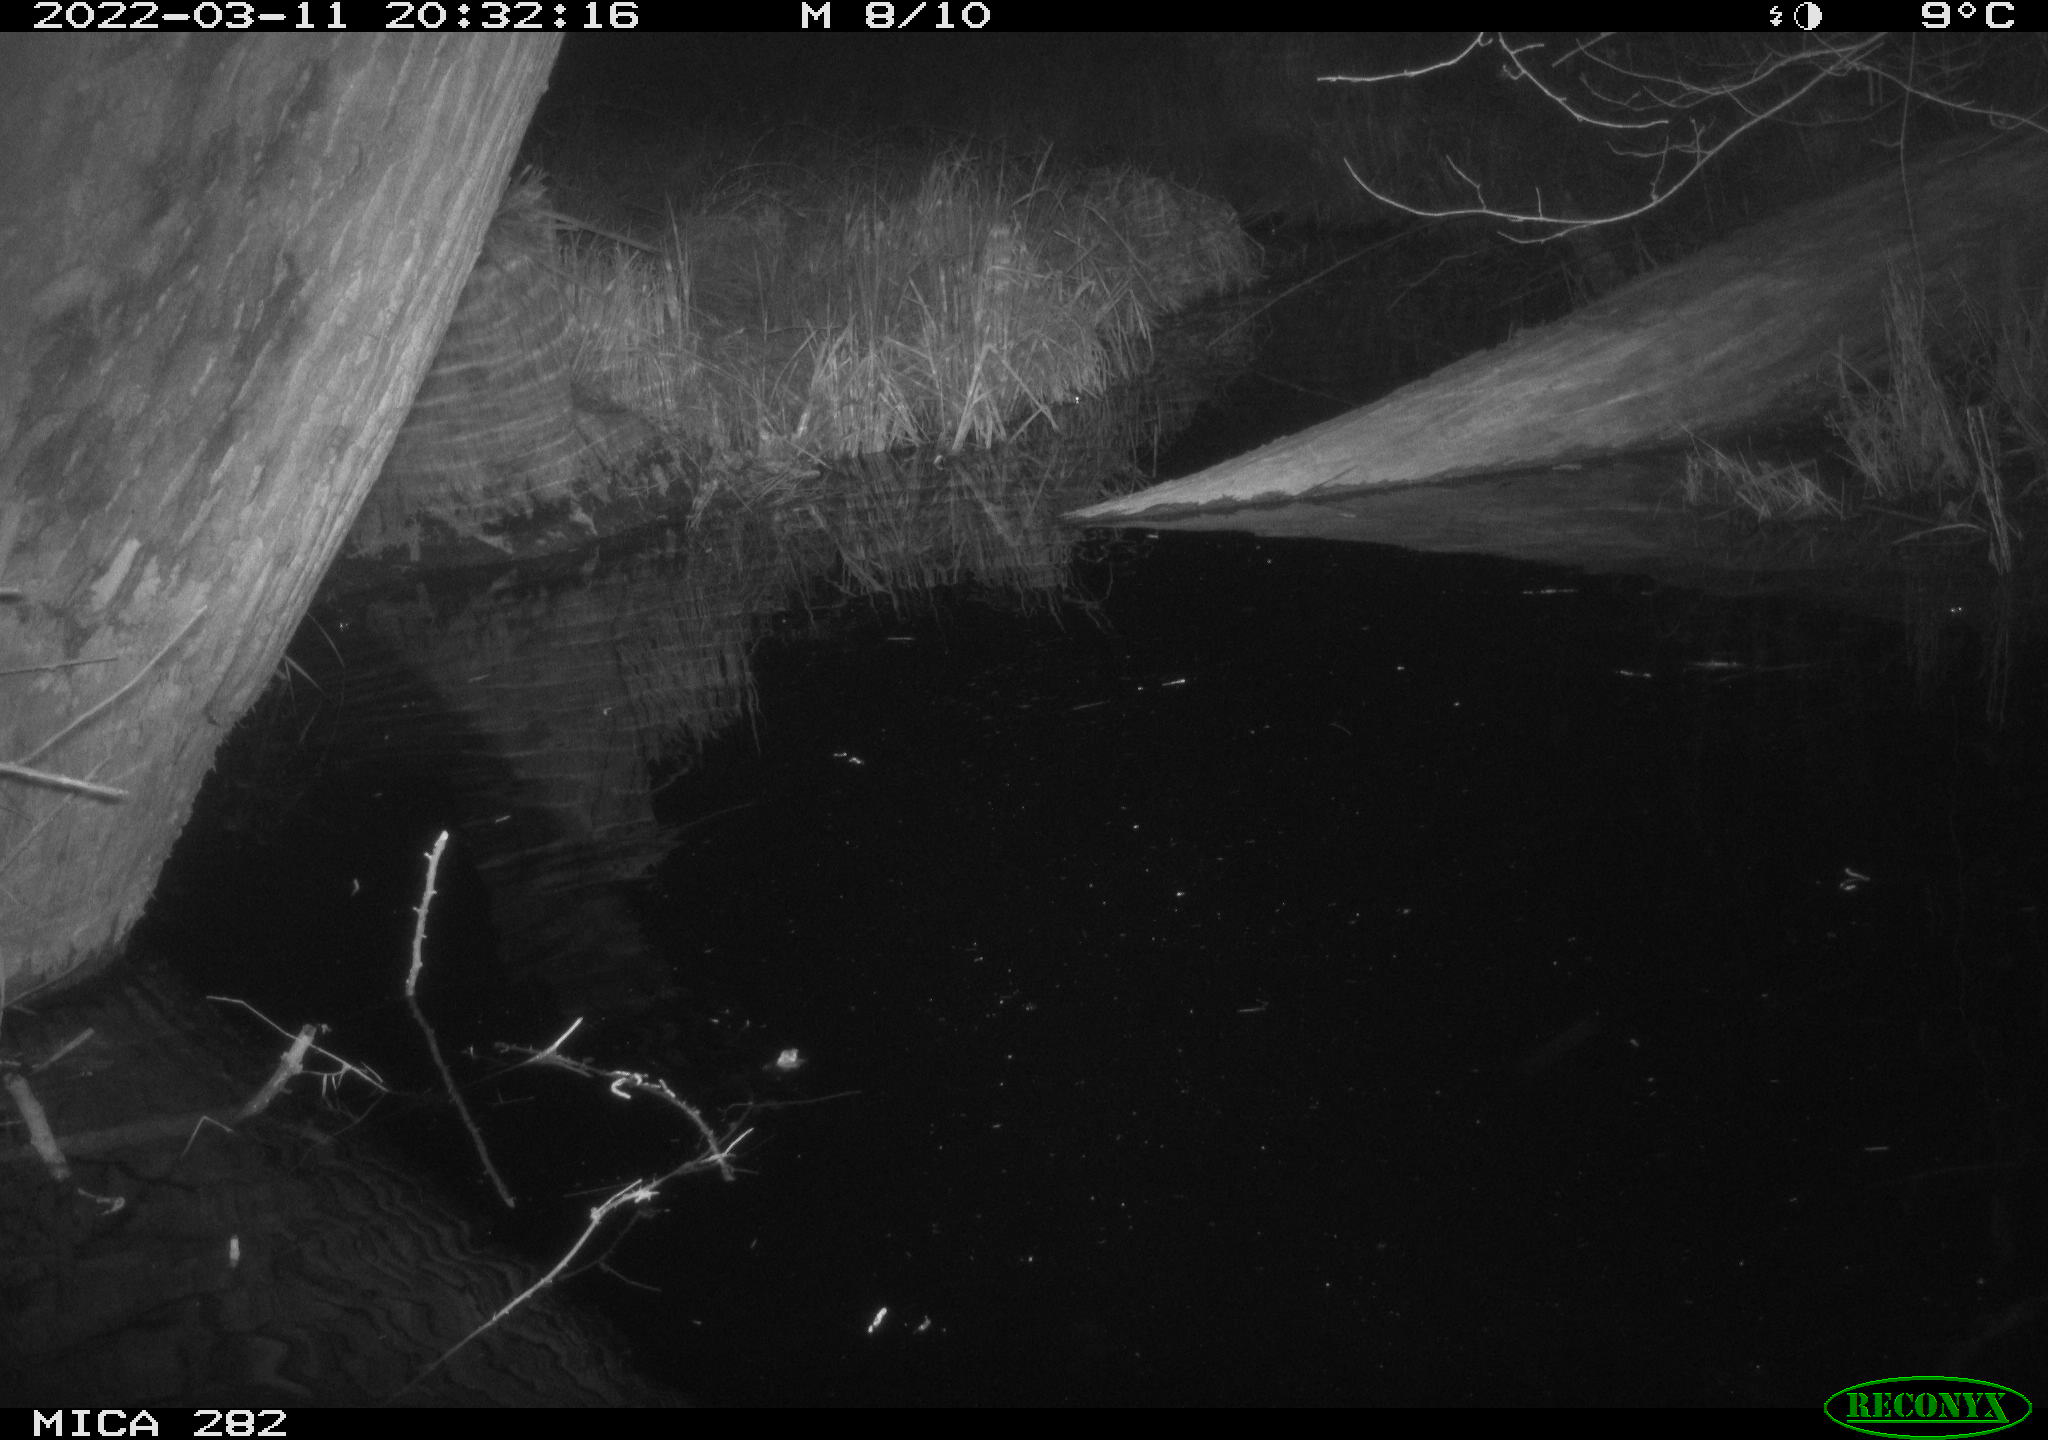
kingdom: Animalia
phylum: Chordata
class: Aves
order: Anseriformes
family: Anatidae
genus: Anas
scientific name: Anas platyrhynchos
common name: Mallard
